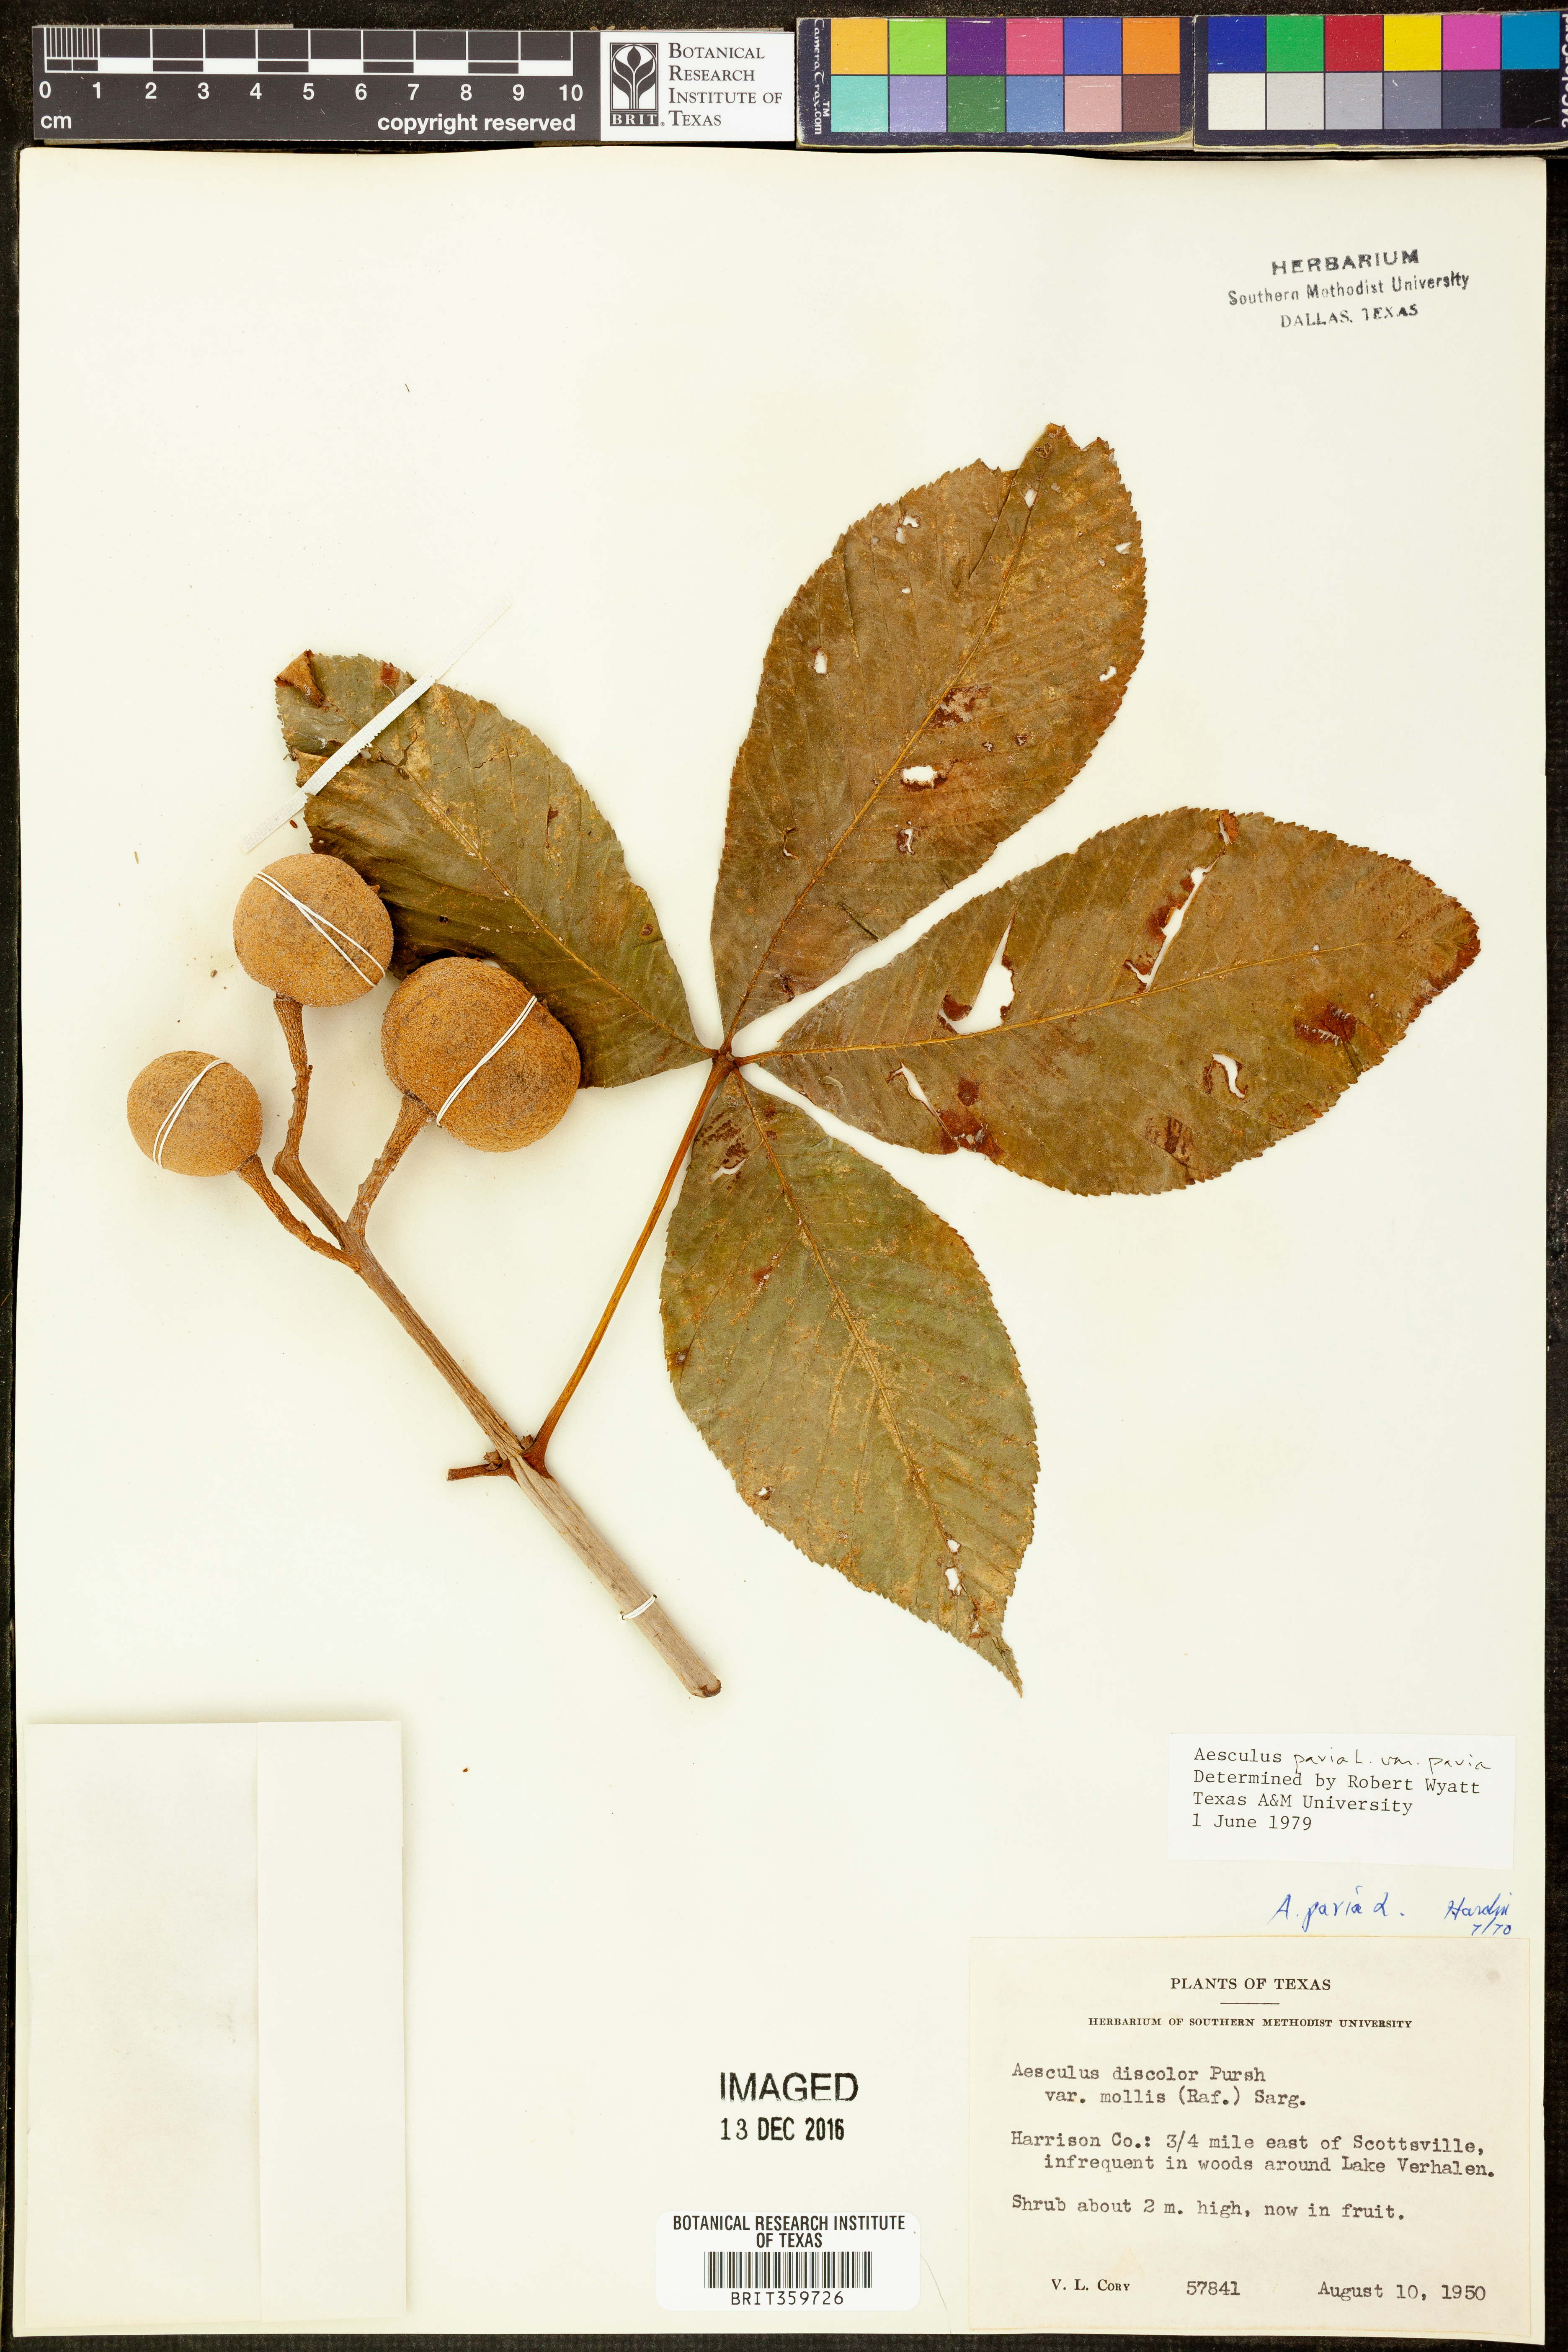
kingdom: Plantae
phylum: Tracheophyta
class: Magnoliopsida
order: Sapindales
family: Sapindaceae
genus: Aesculus
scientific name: Aesculus pavia
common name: Red buckeye
